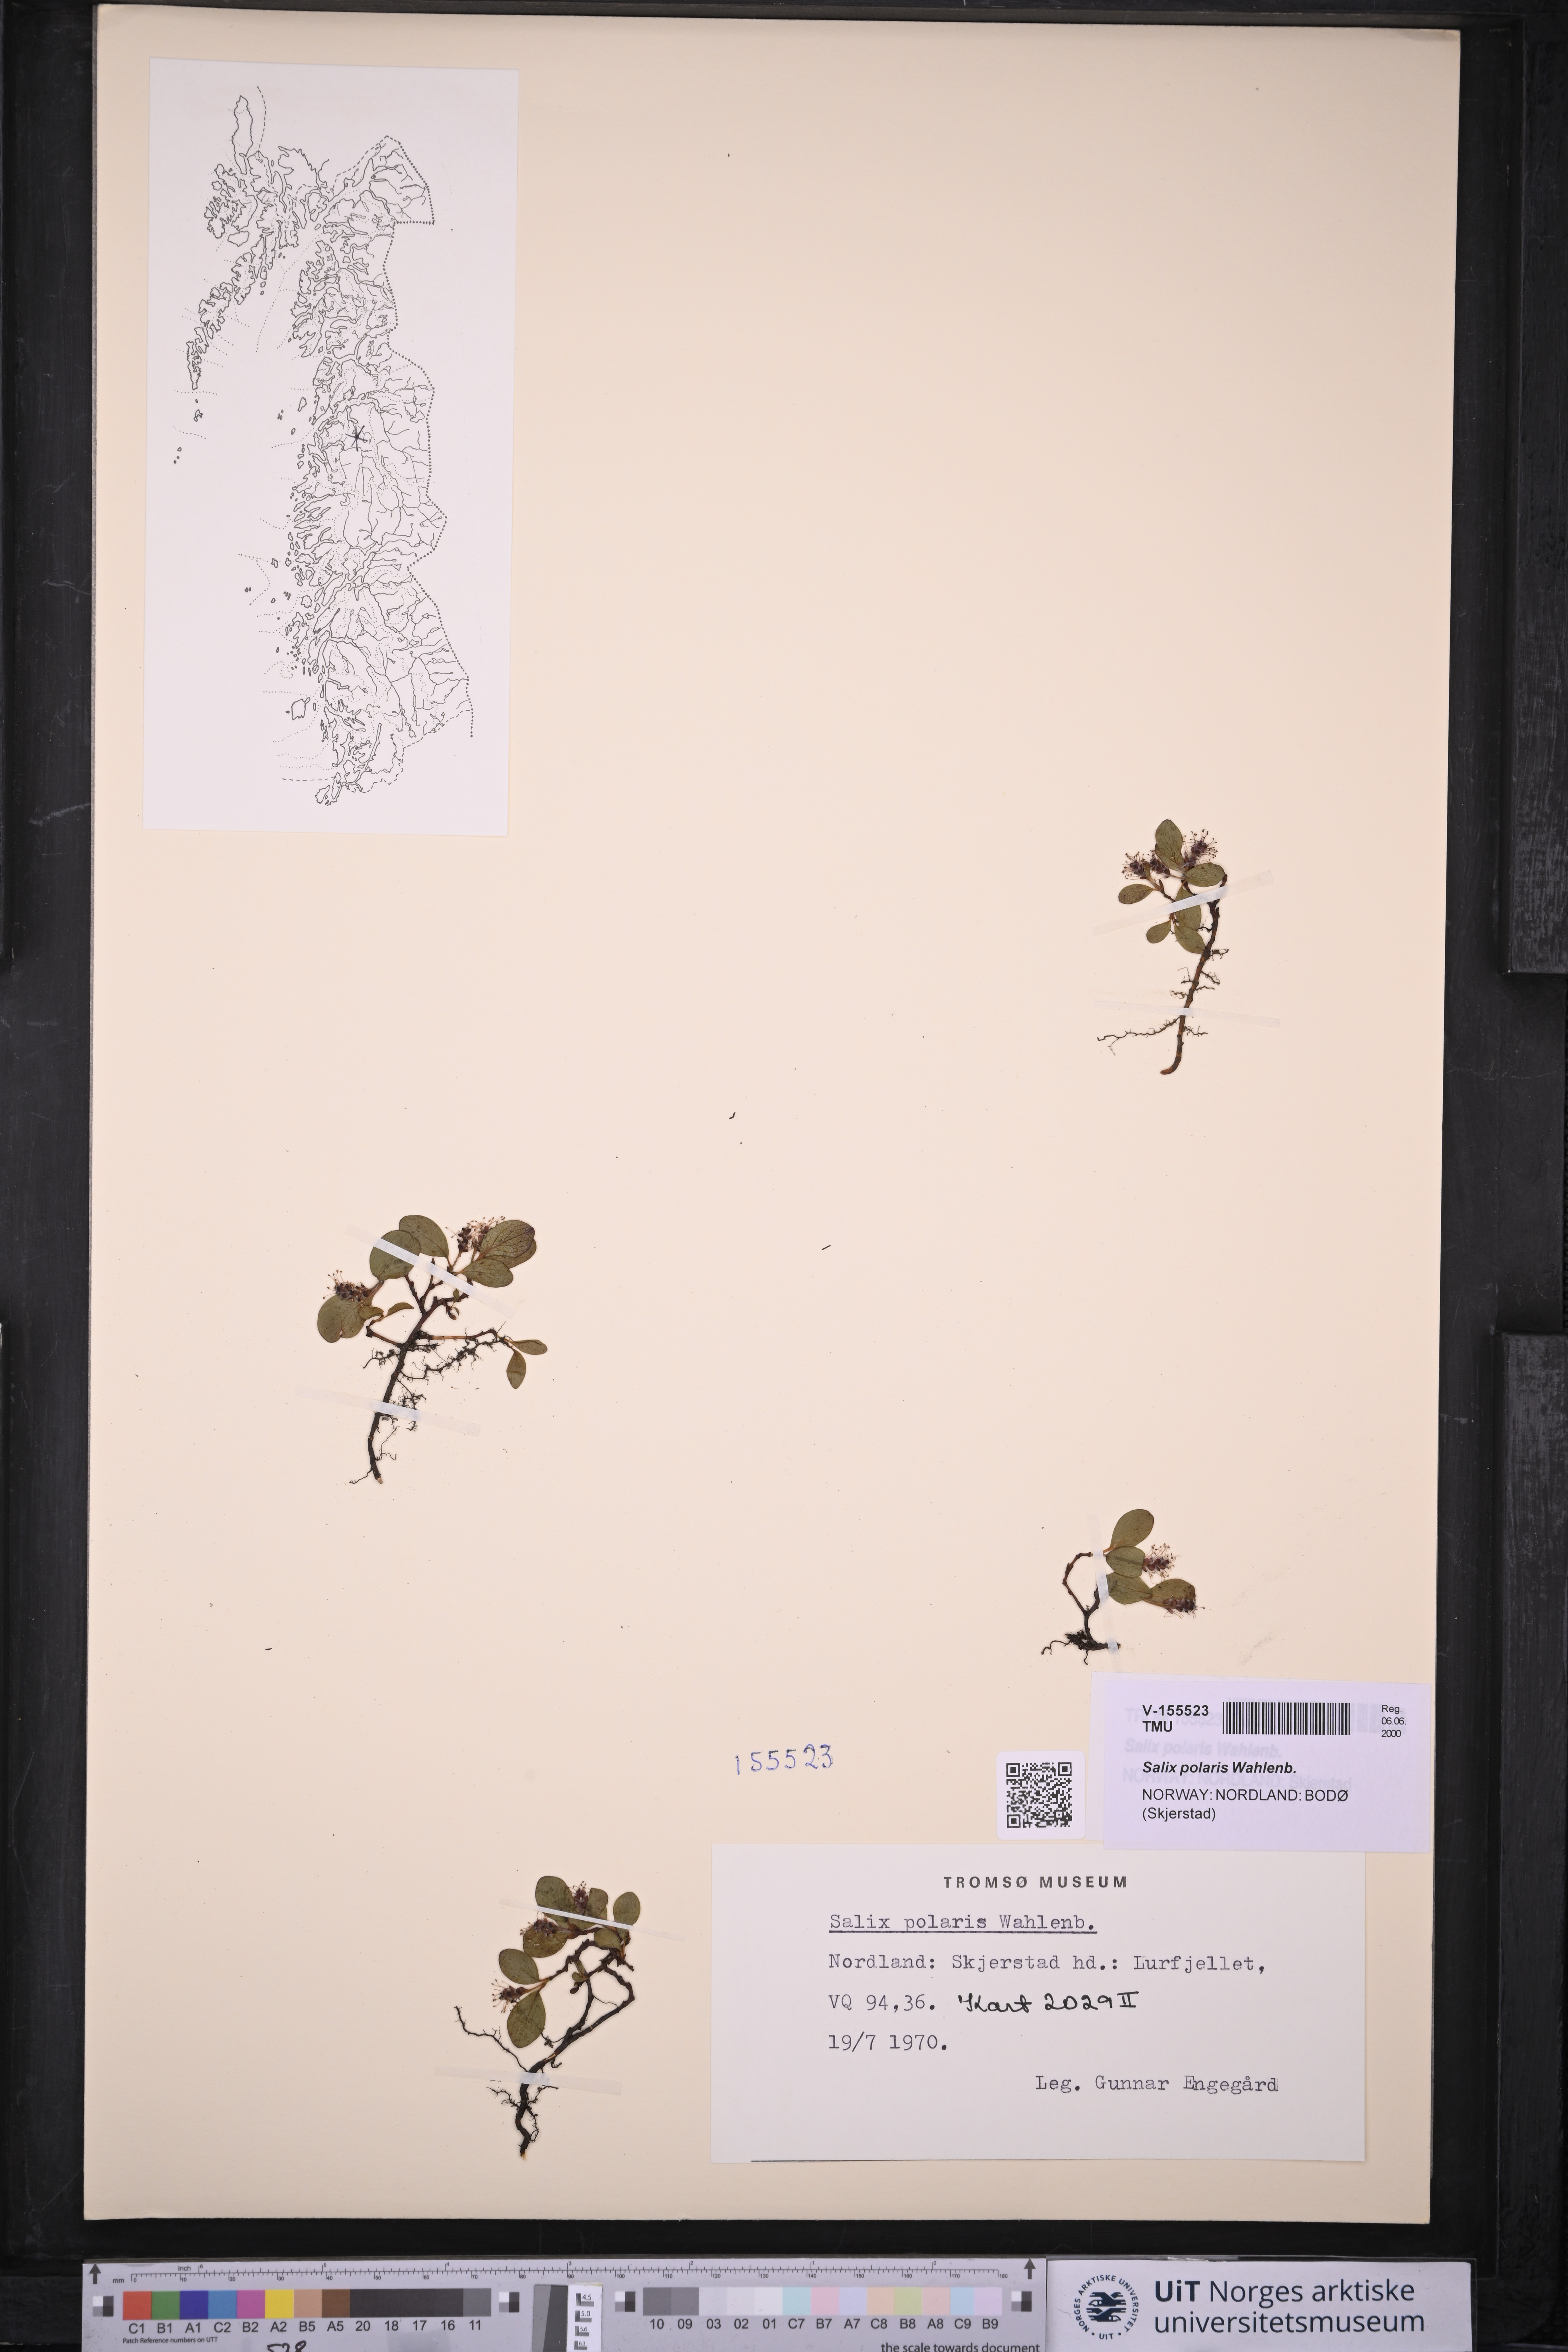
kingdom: Plantae
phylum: Tracheophyta
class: Magnoliopsida
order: Malpighiales
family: Salicaceae
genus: Salix
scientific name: Salix polaris
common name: Polar willow
